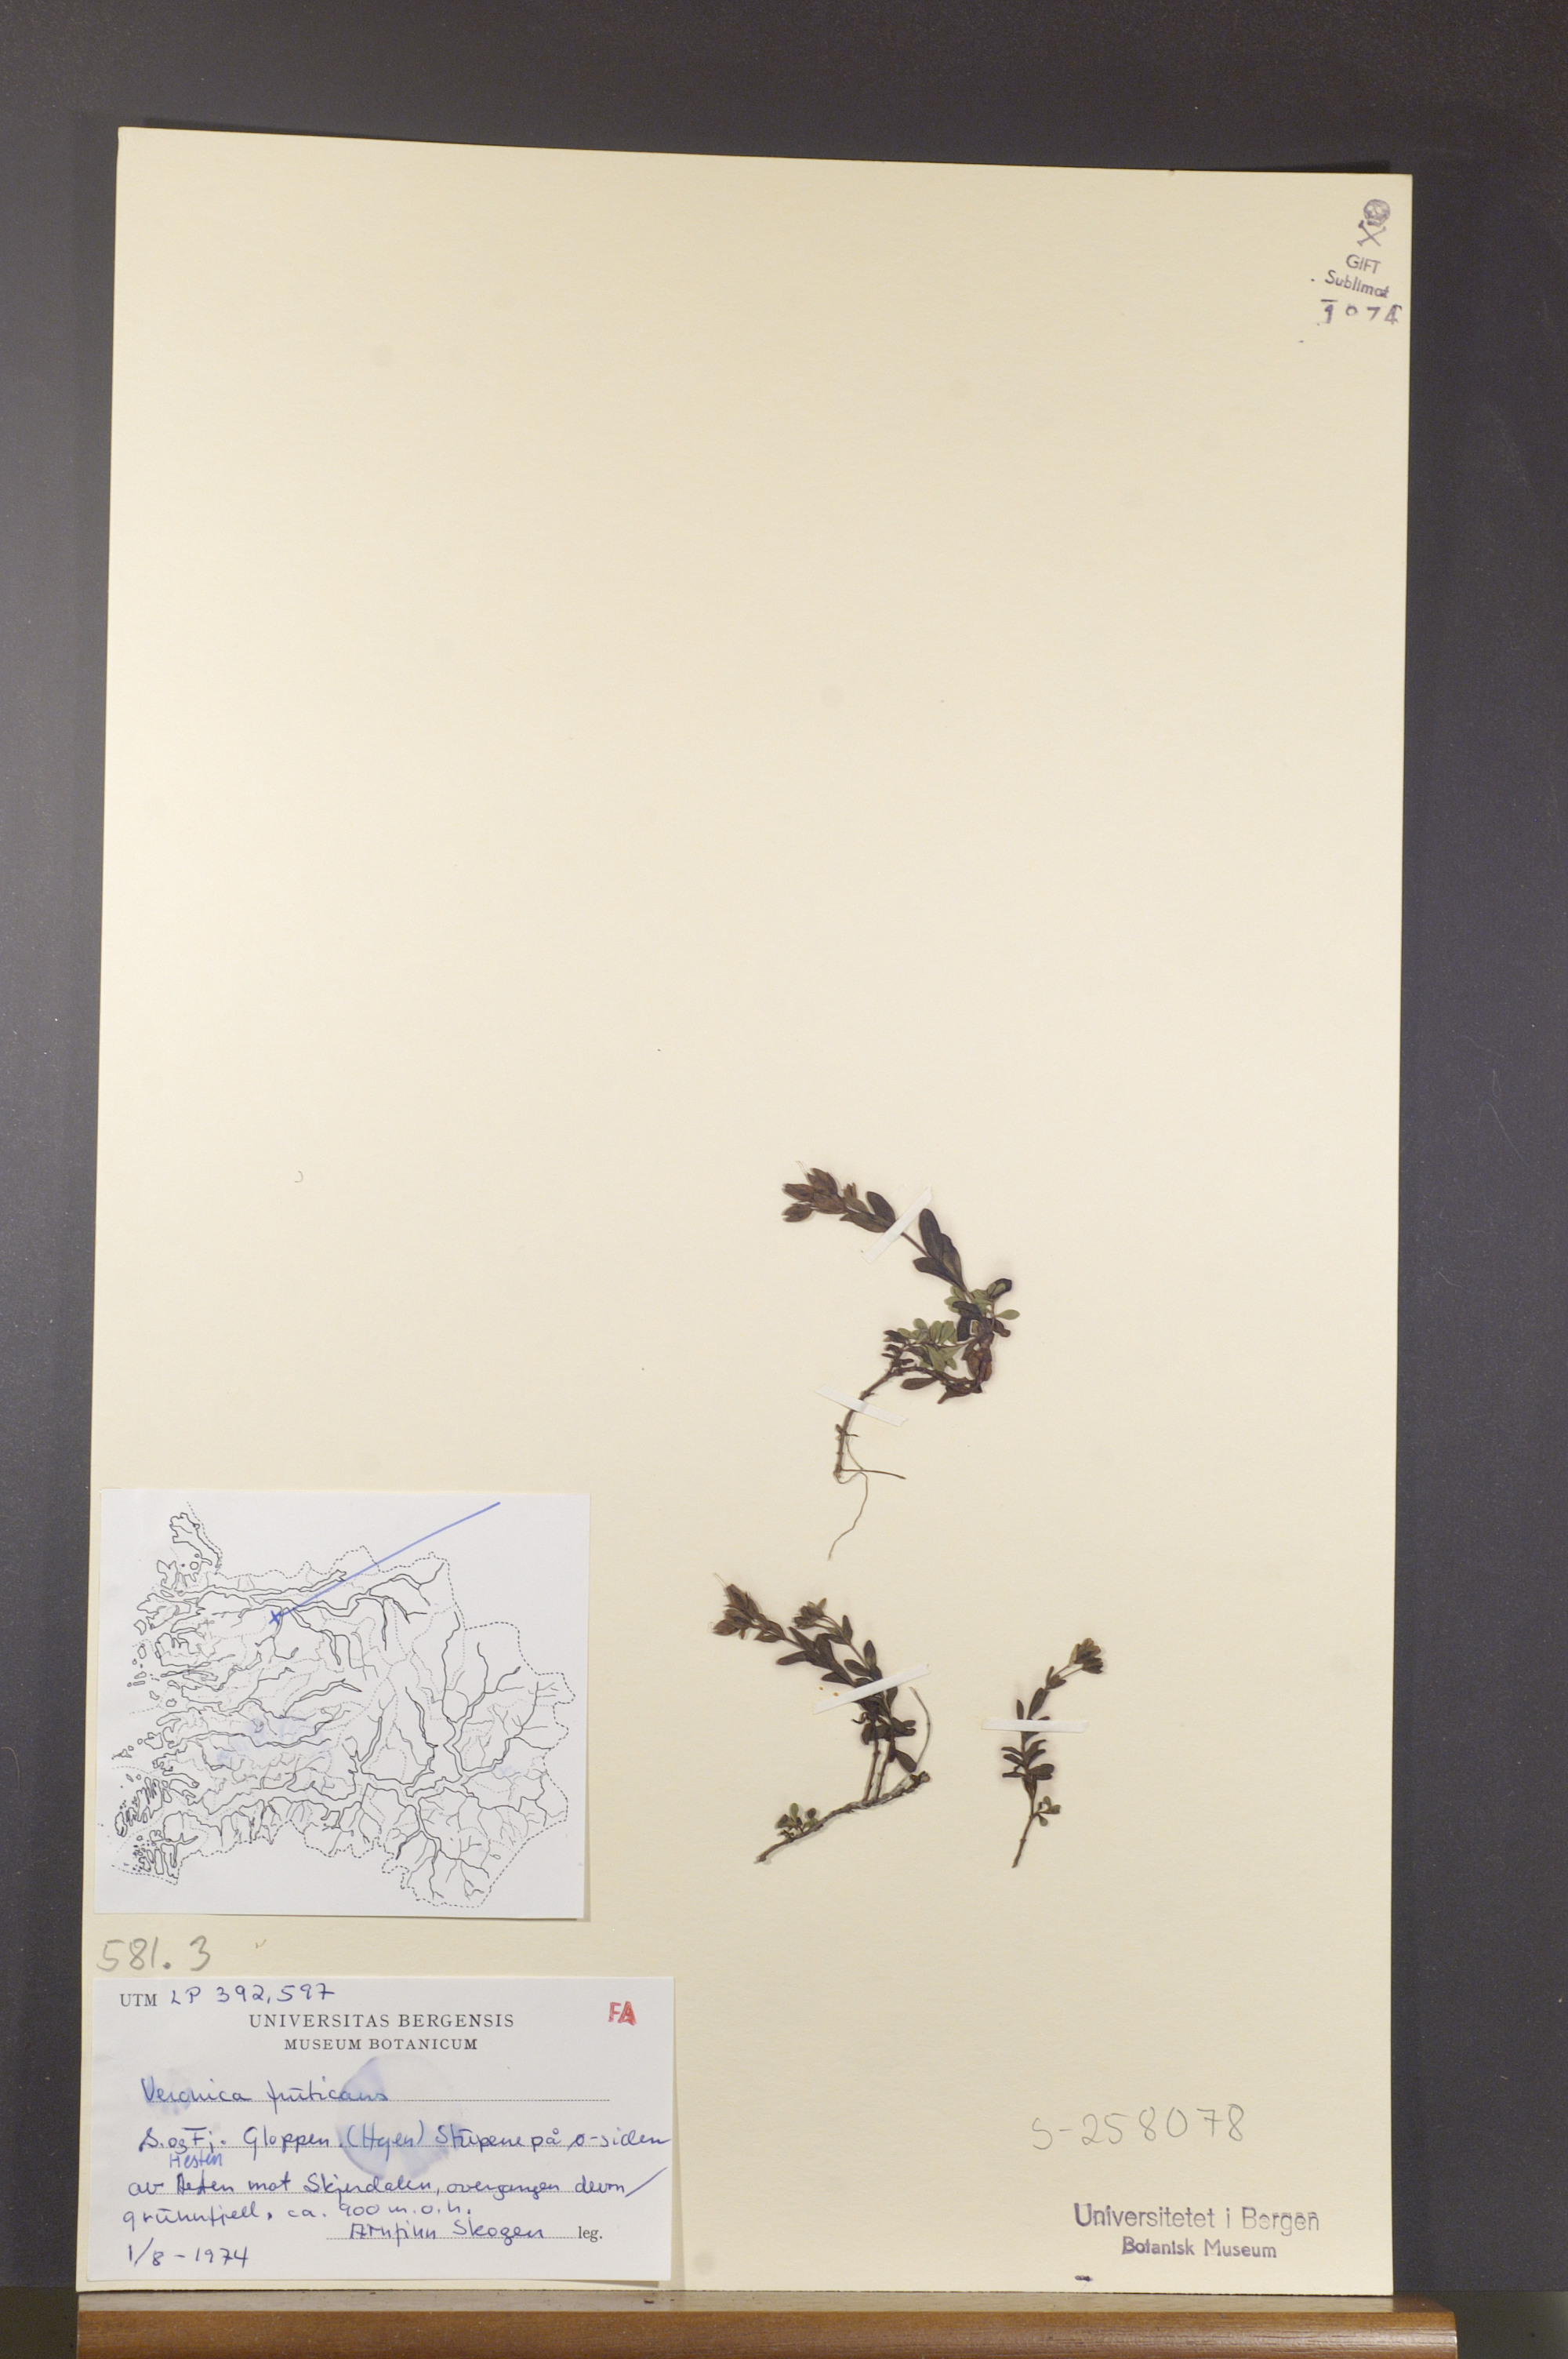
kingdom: Plantae
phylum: Tracheophyta
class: Magnoliopsida
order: Lamiales
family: Plantaginaceae
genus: Veronica
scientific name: Veronica fruticans
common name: Rock speedwell
